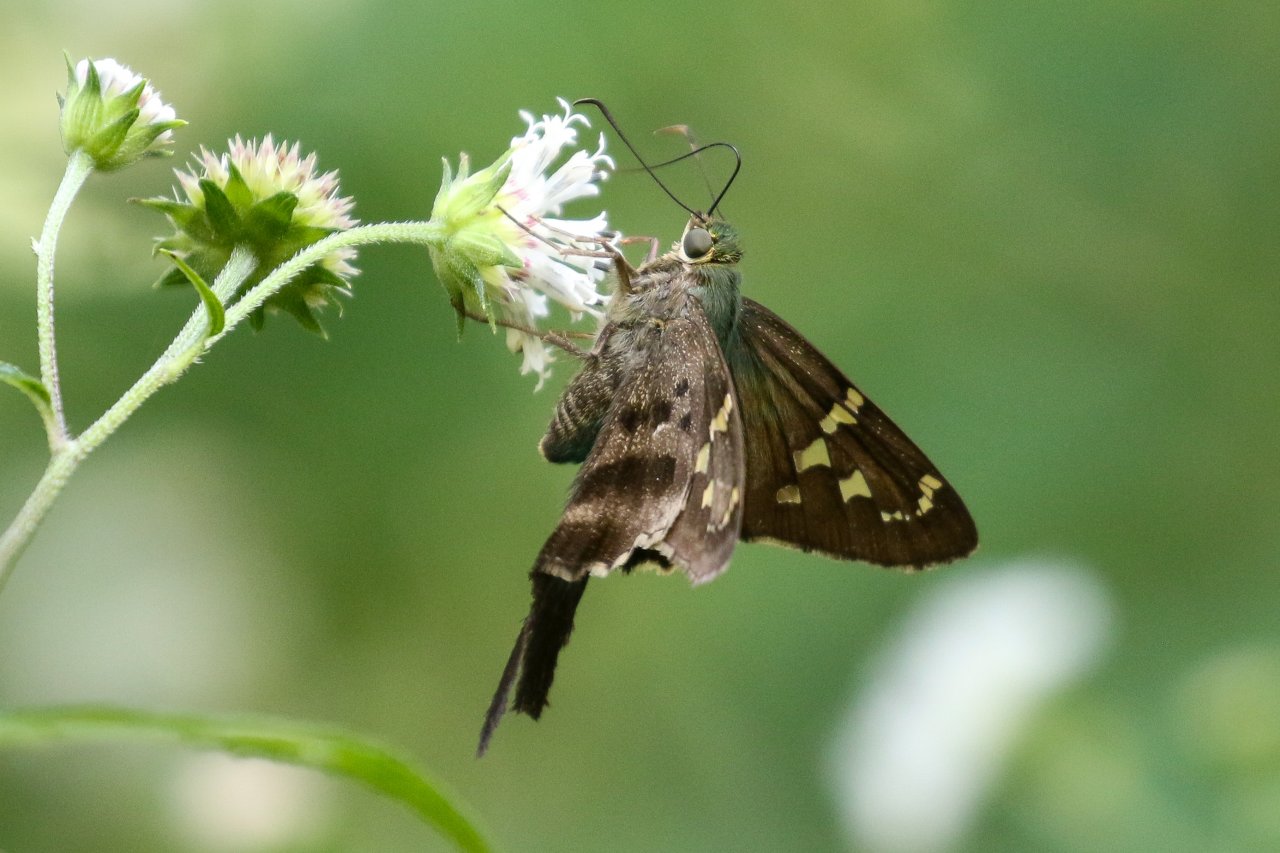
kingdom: Animalia
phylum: Arthropoda
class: Insecta
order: Lepidoptera
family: Hesperiidae
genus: Urbanus
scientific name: Urbanus proteus
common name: Long-tailed Skipper
